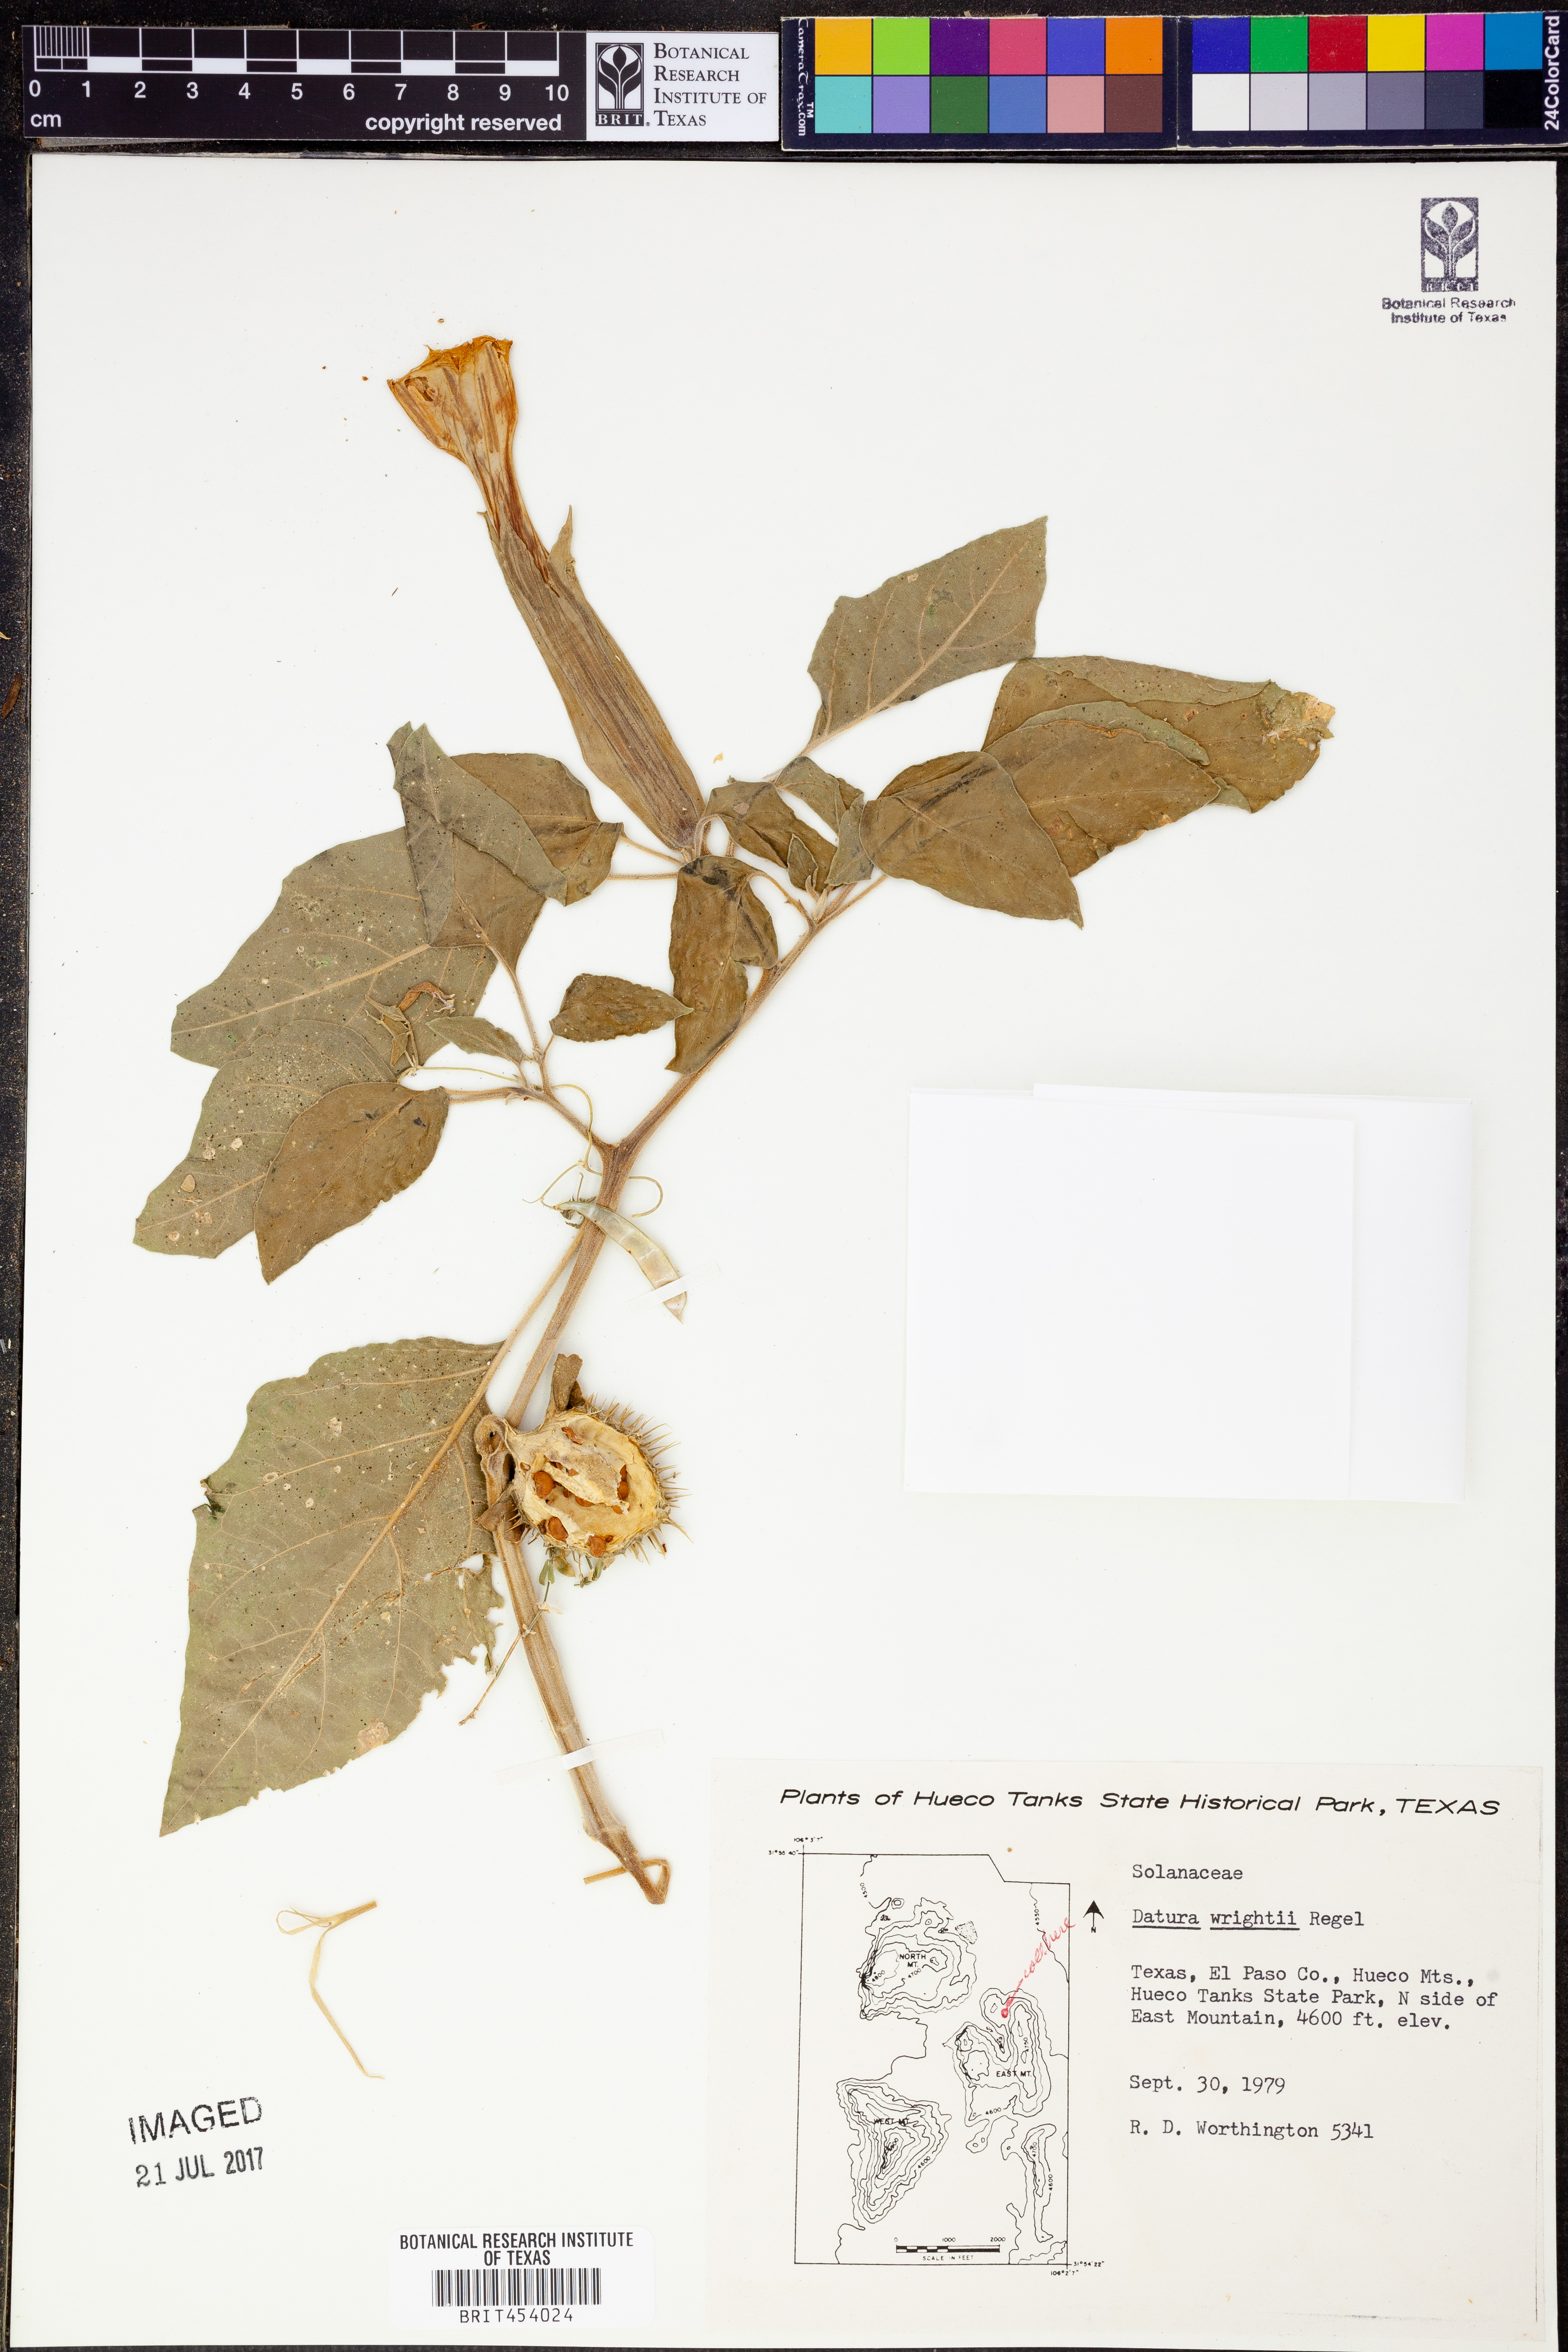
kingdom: Plantae
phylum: Tracheophyta
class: Magnoliopsida
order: Solanales
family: Solanaceae
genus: Datura
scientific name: Datura wrightii
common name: Sacred thorn-apple
